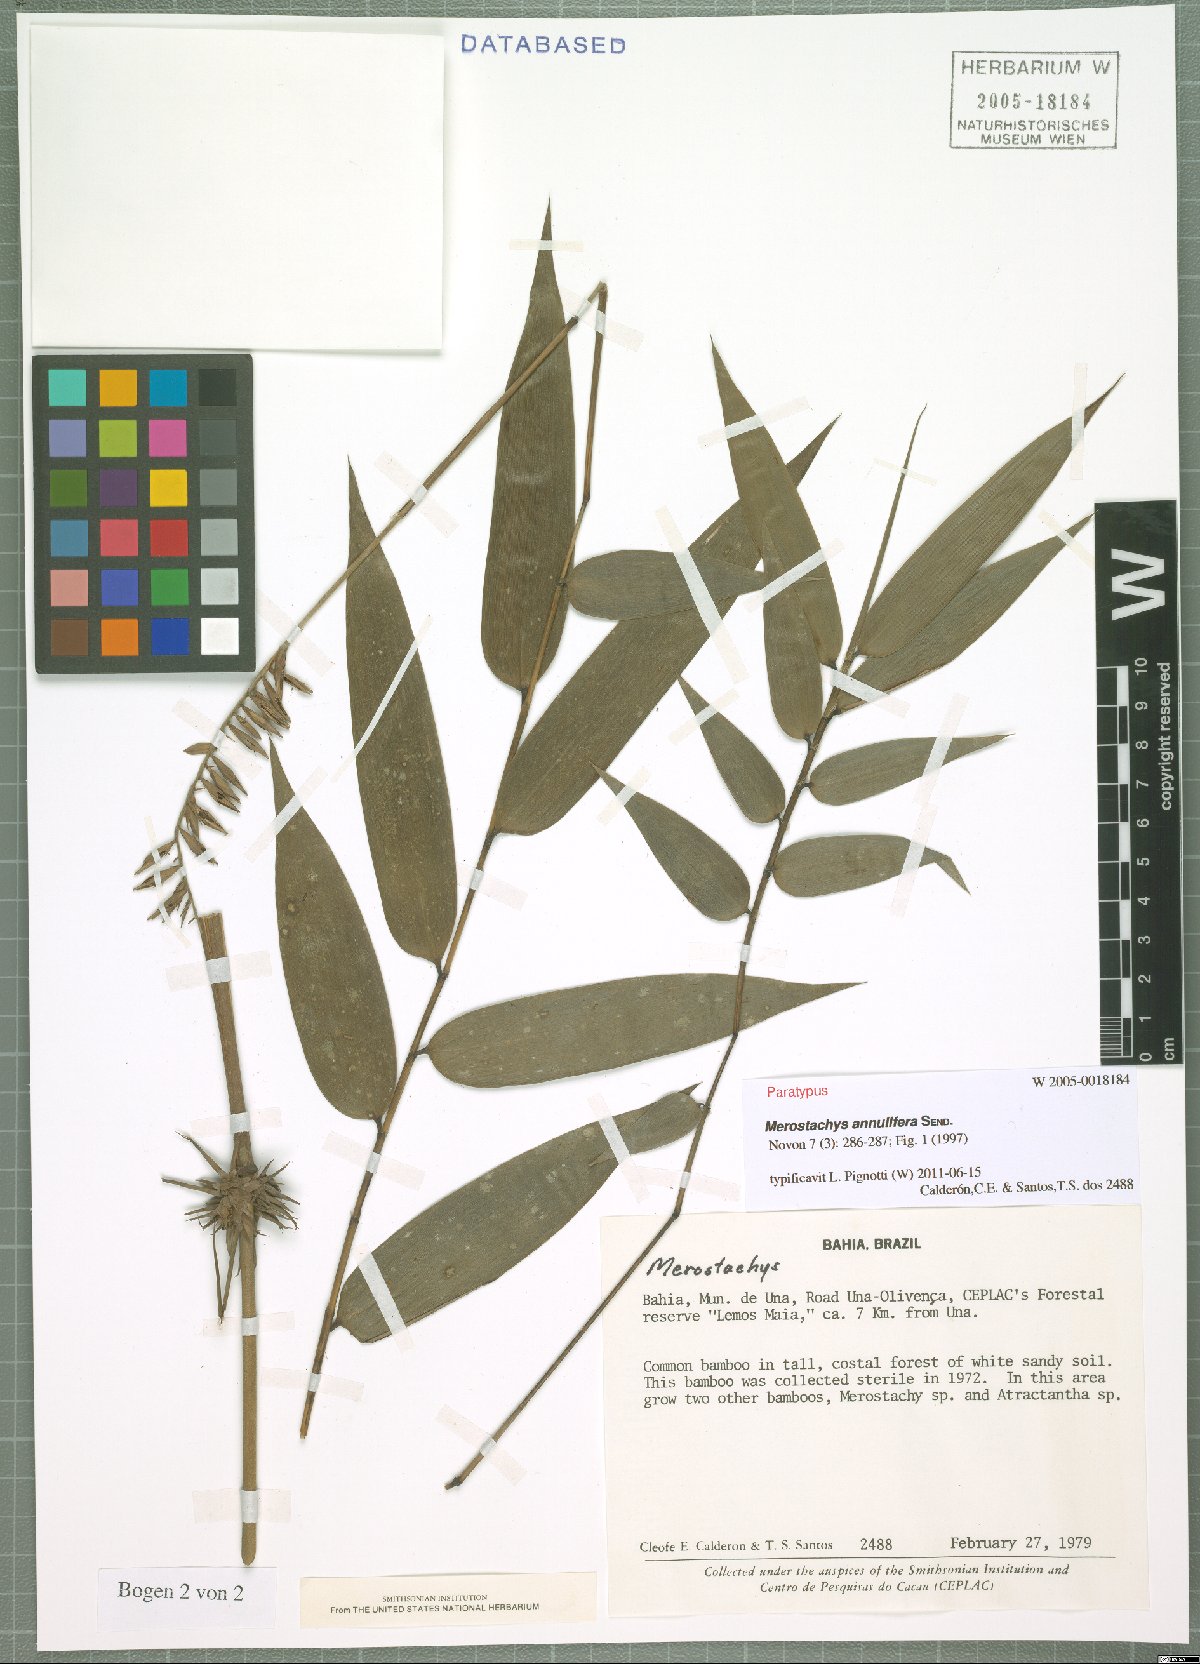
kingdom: Plantae
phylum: Tracheophyta
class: Liliopsida
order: Poales
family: Poaceae
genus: Merostachys
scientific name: Merostachys annulifera
